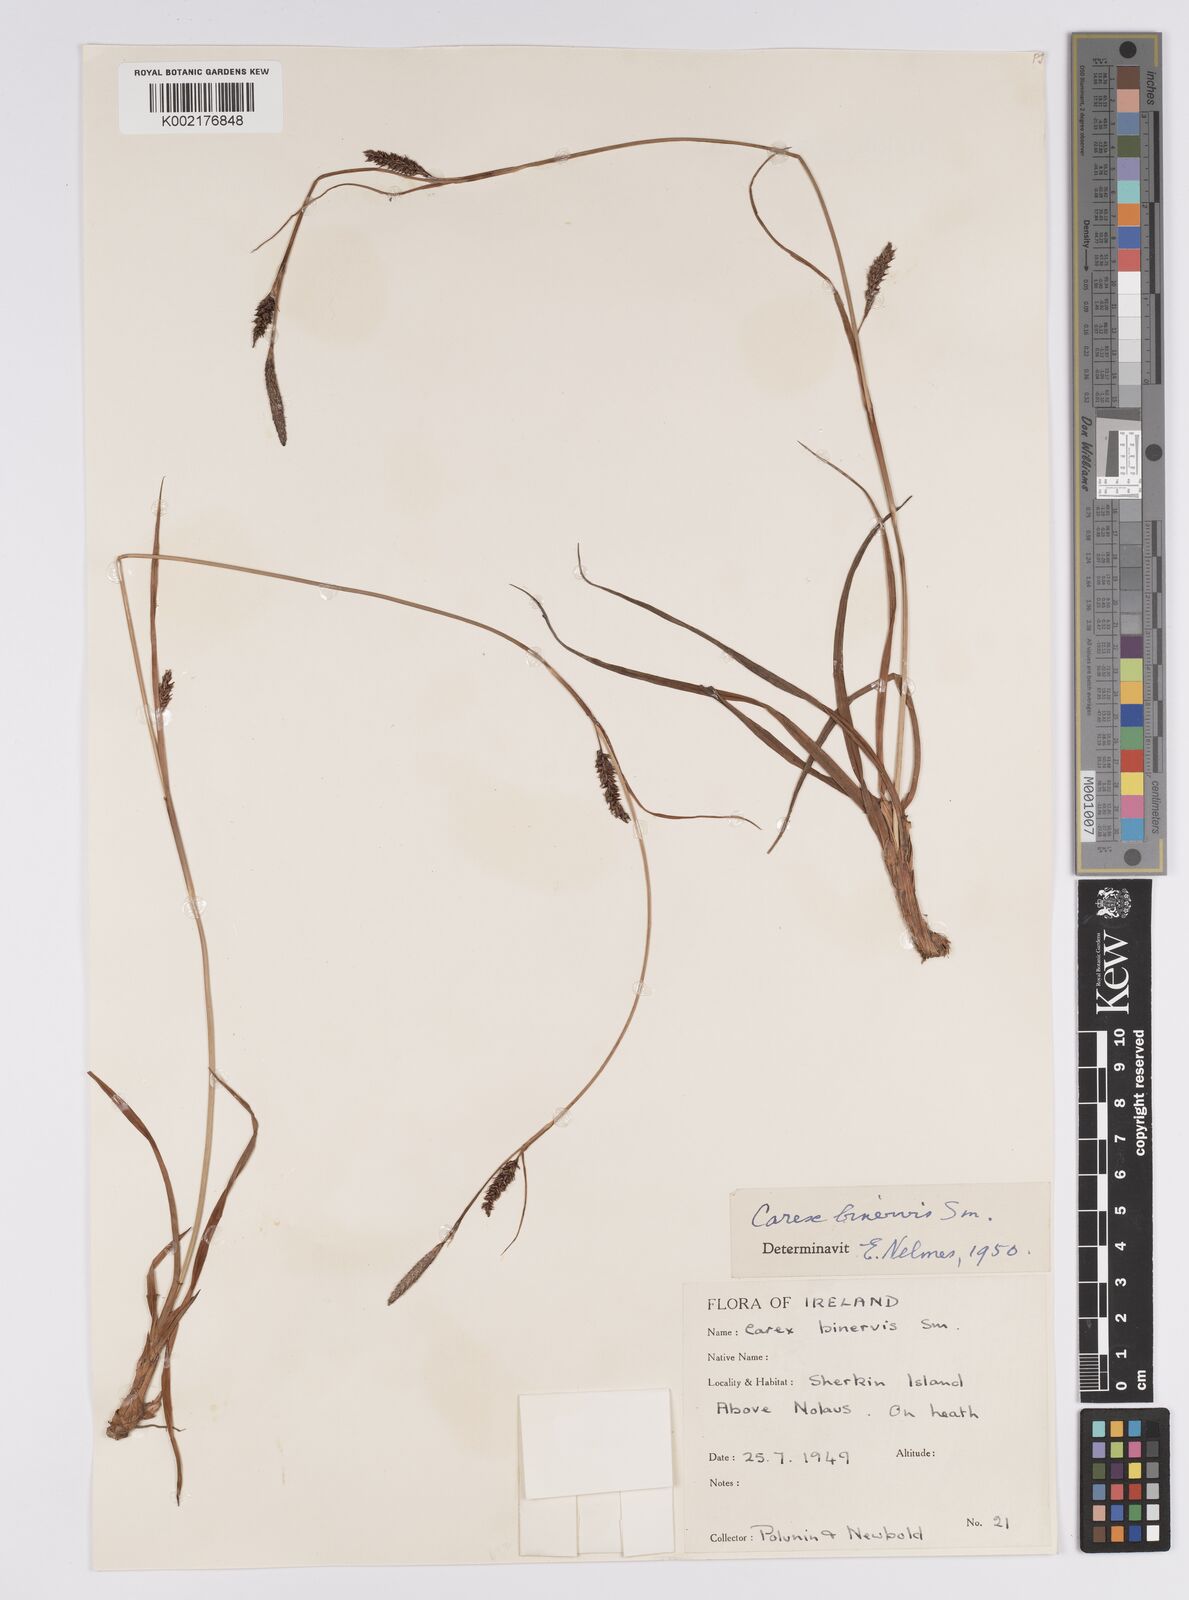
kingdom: Plantae
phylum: Tracheophyta
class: Liliopsida
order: Poales
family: Cyperaceae
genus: Carex
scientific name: Carex binervis
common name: Green-ribbed sedge
